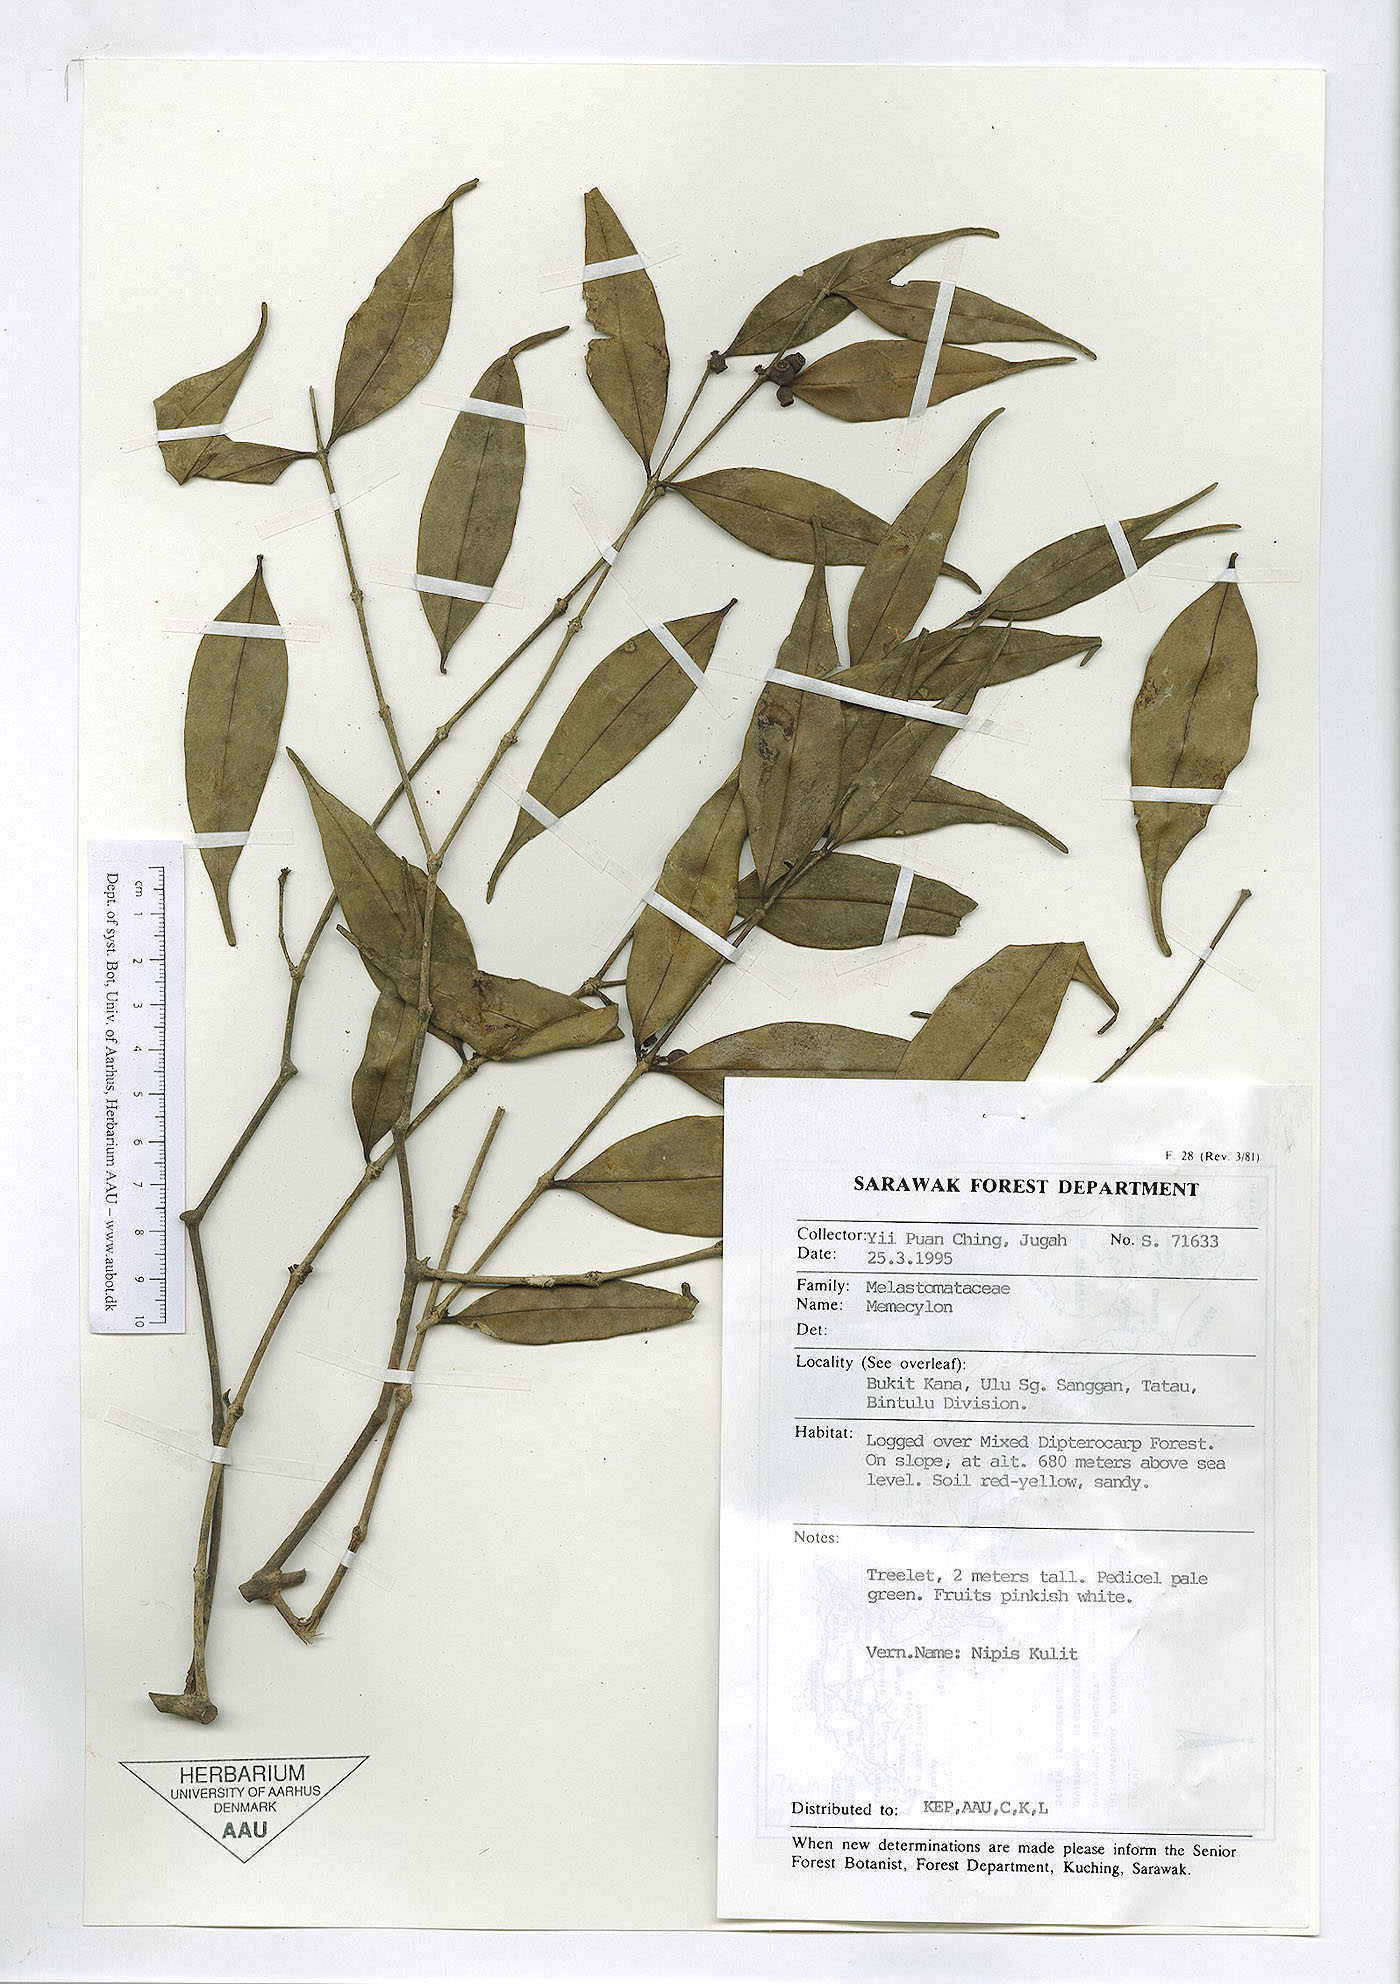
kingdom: Plantae
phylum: Tracheophyta
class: Magnoliopsida
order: Myrtales
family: Melastomataceae
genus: Memecylon
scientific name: Memecylon
